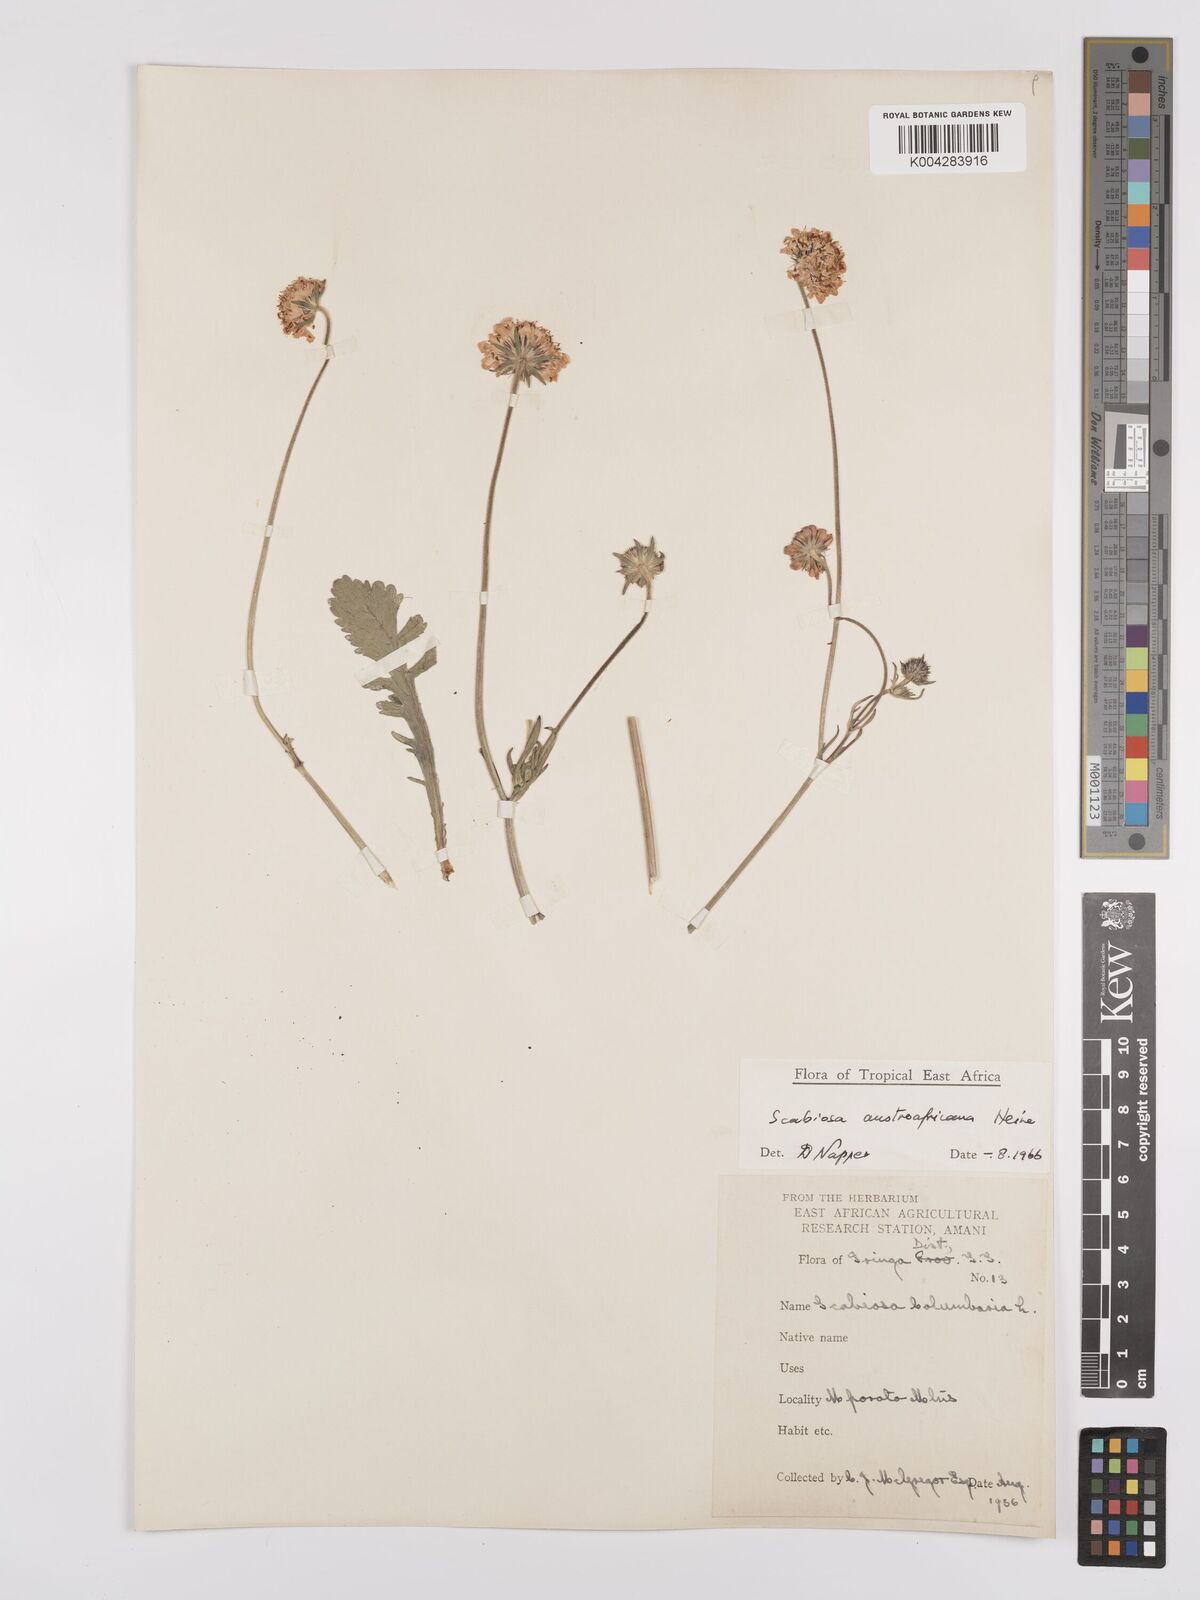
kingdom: Plantae
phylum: Tracheophyta
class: Magnoliopsida
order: Dipsacales
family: Caprifoliaceae
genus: Scabiosa
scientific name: Scabiosa austroafricana
